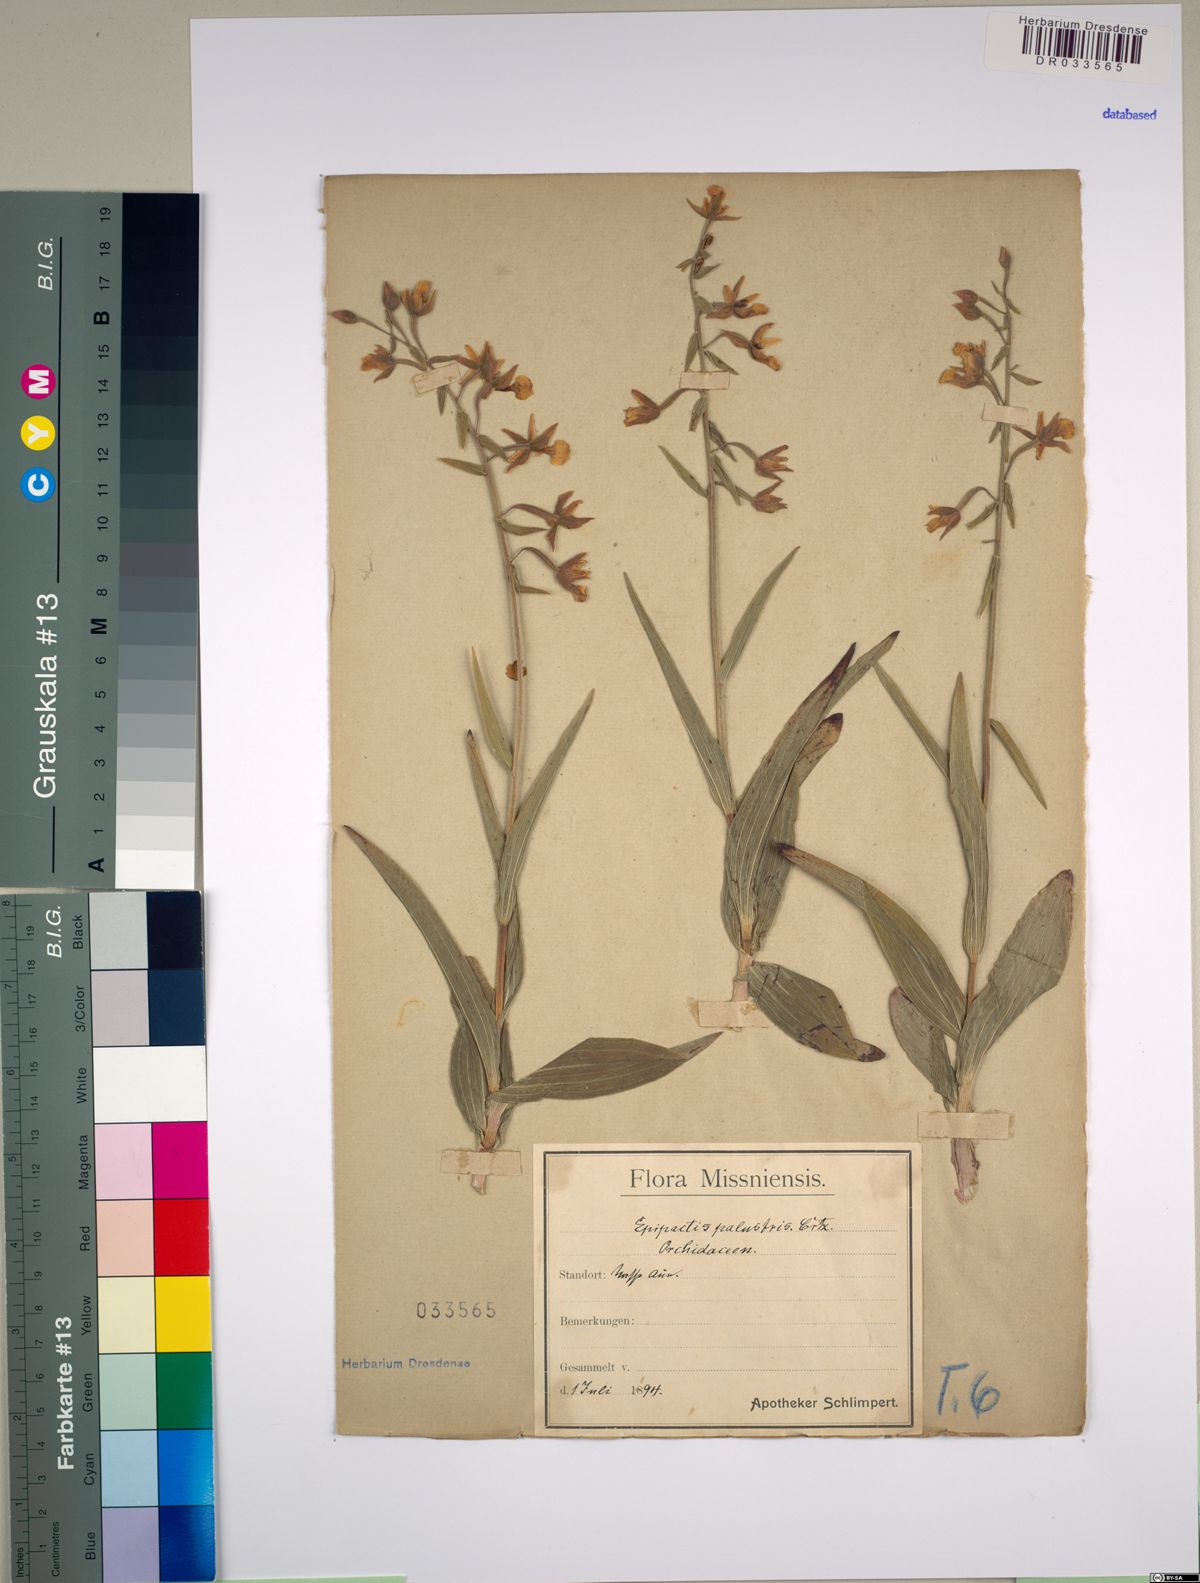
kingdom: Plantae
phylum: Tracheophyta
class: Liliopsida
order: Asparagales
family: Orchidaceae
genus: Epipactis
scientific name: Epipactis palustris
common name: Marsh helleborine
